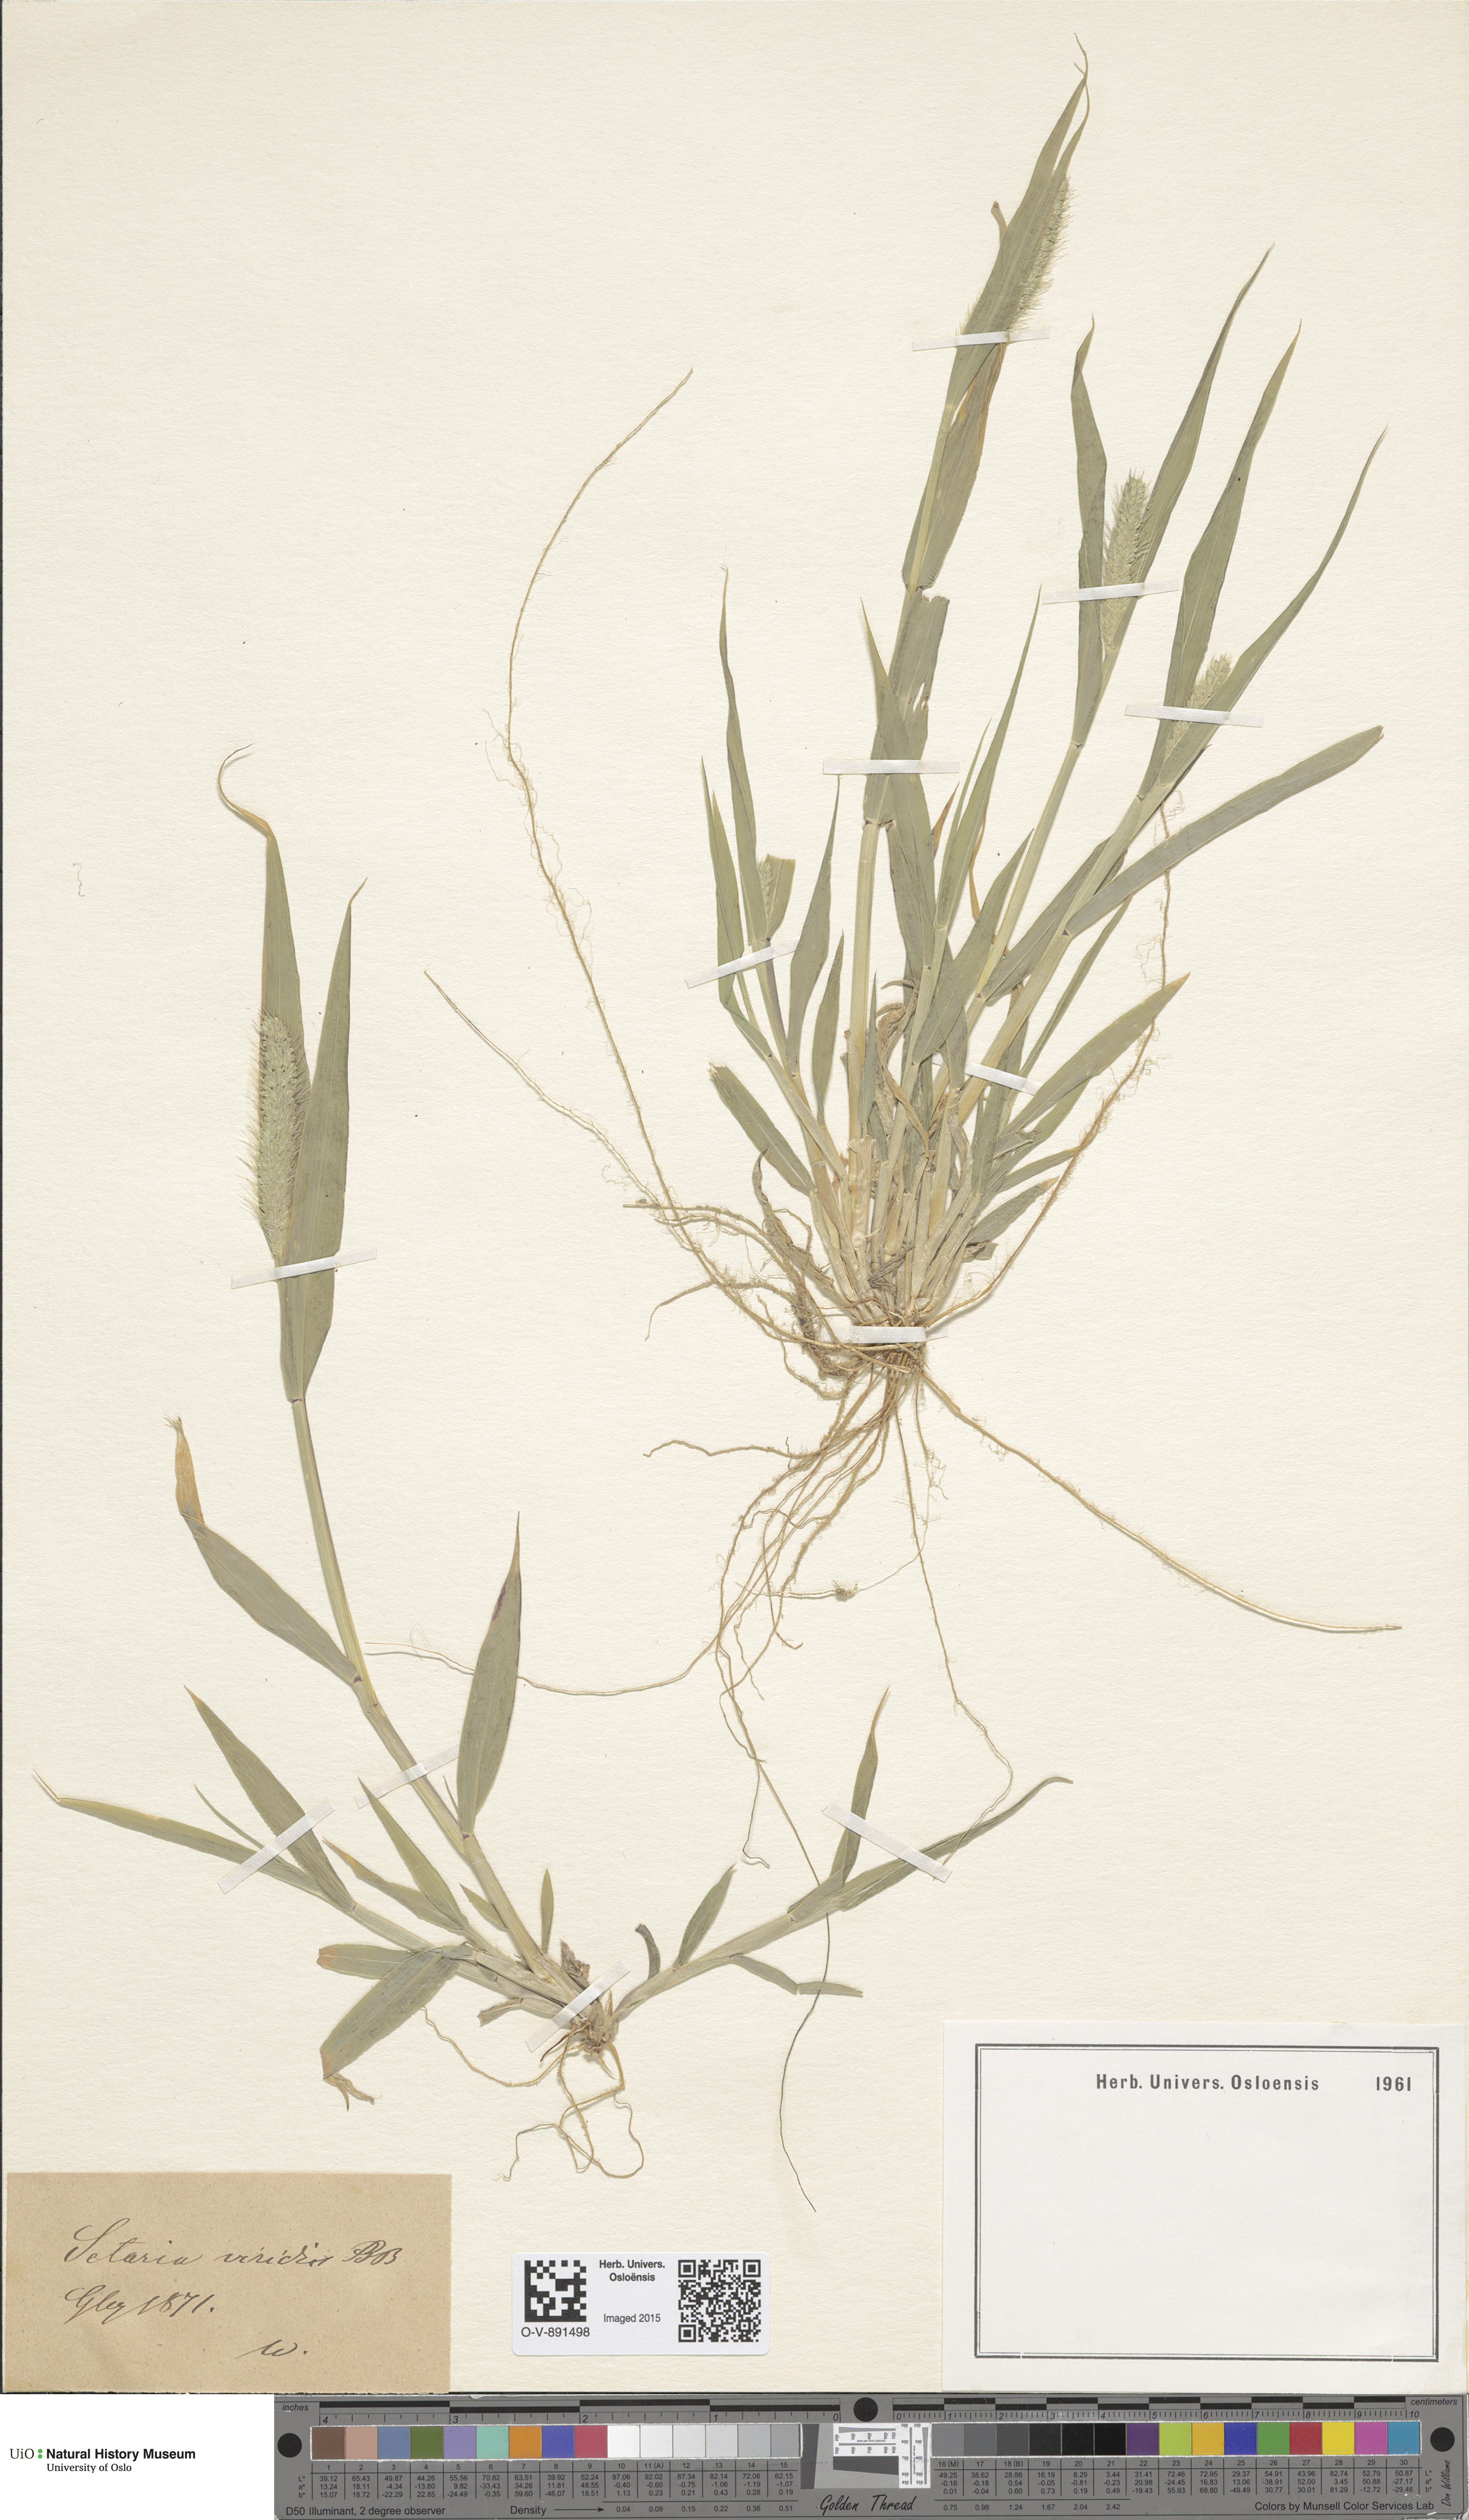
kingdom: Plantae
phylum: Tracheophyta
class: Liliopsida
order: Poales
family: Poaceae
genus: Setaria
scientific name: Setaria viridis
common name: Green bristlegrass
